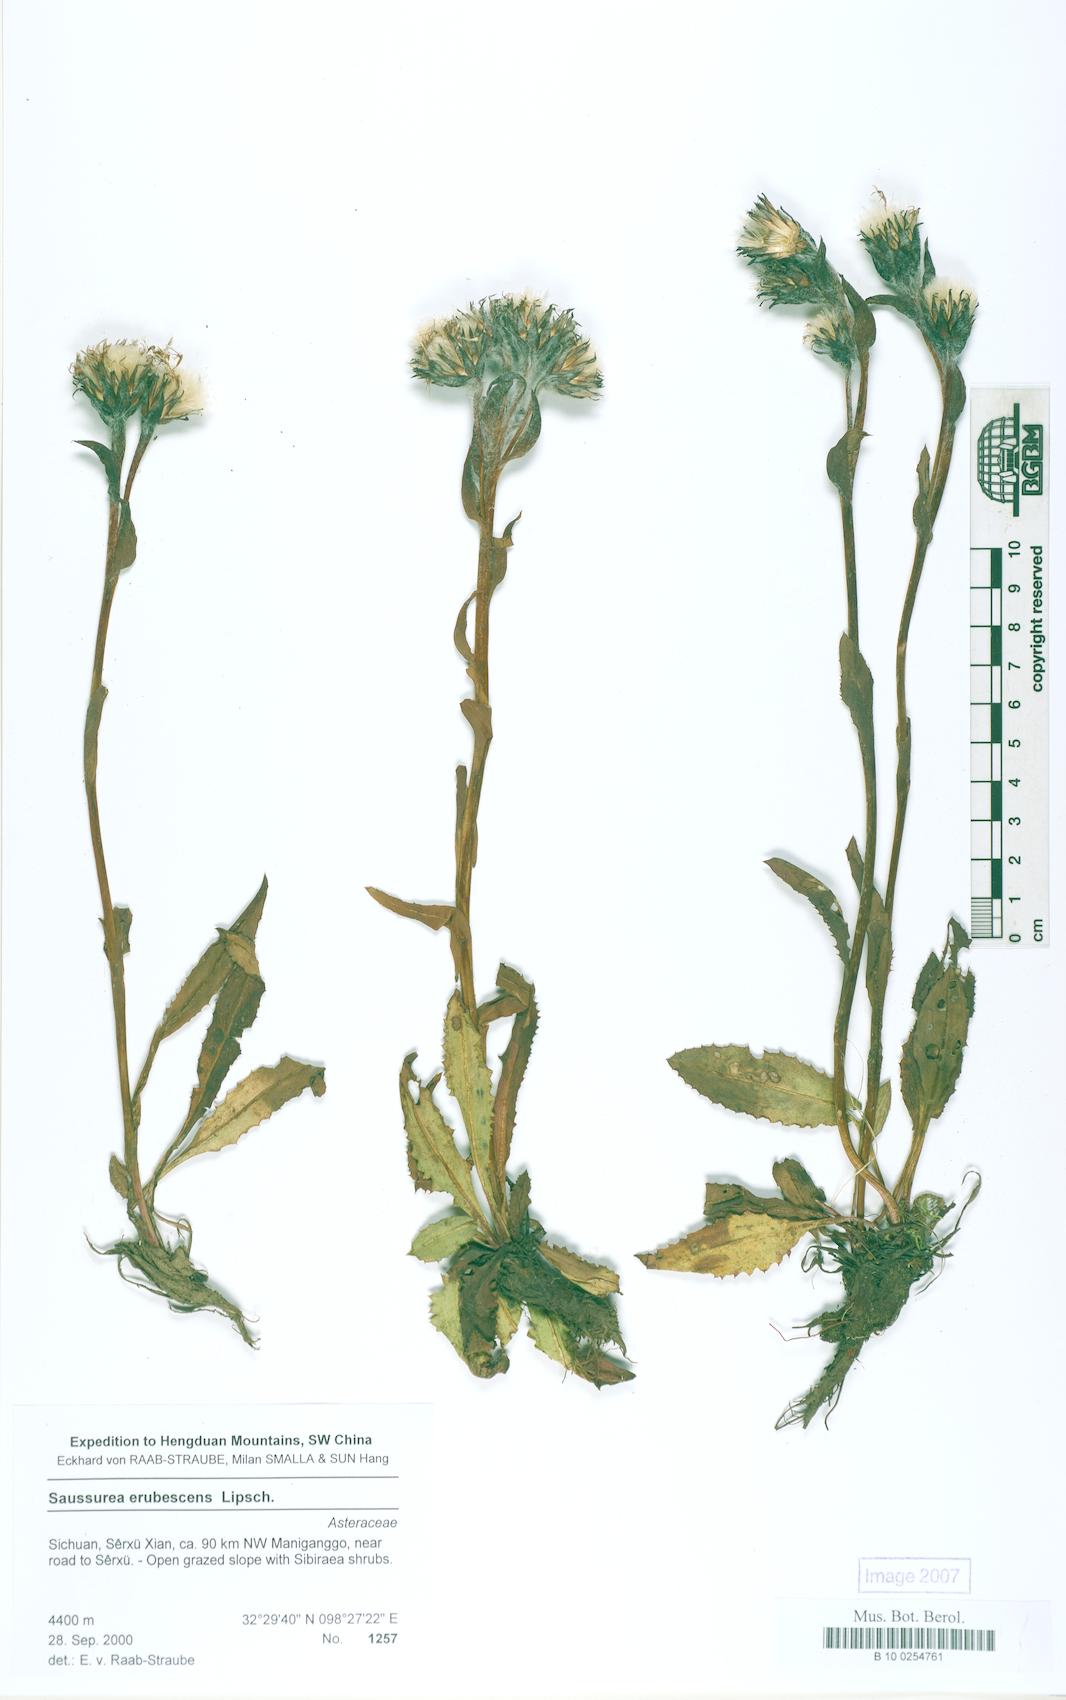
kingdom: Plantae
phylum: Tracheophyta
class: Magnoliopsida
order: Asterales
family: Asteraceae
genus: Saussurea
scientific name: Saussurea erubescens
